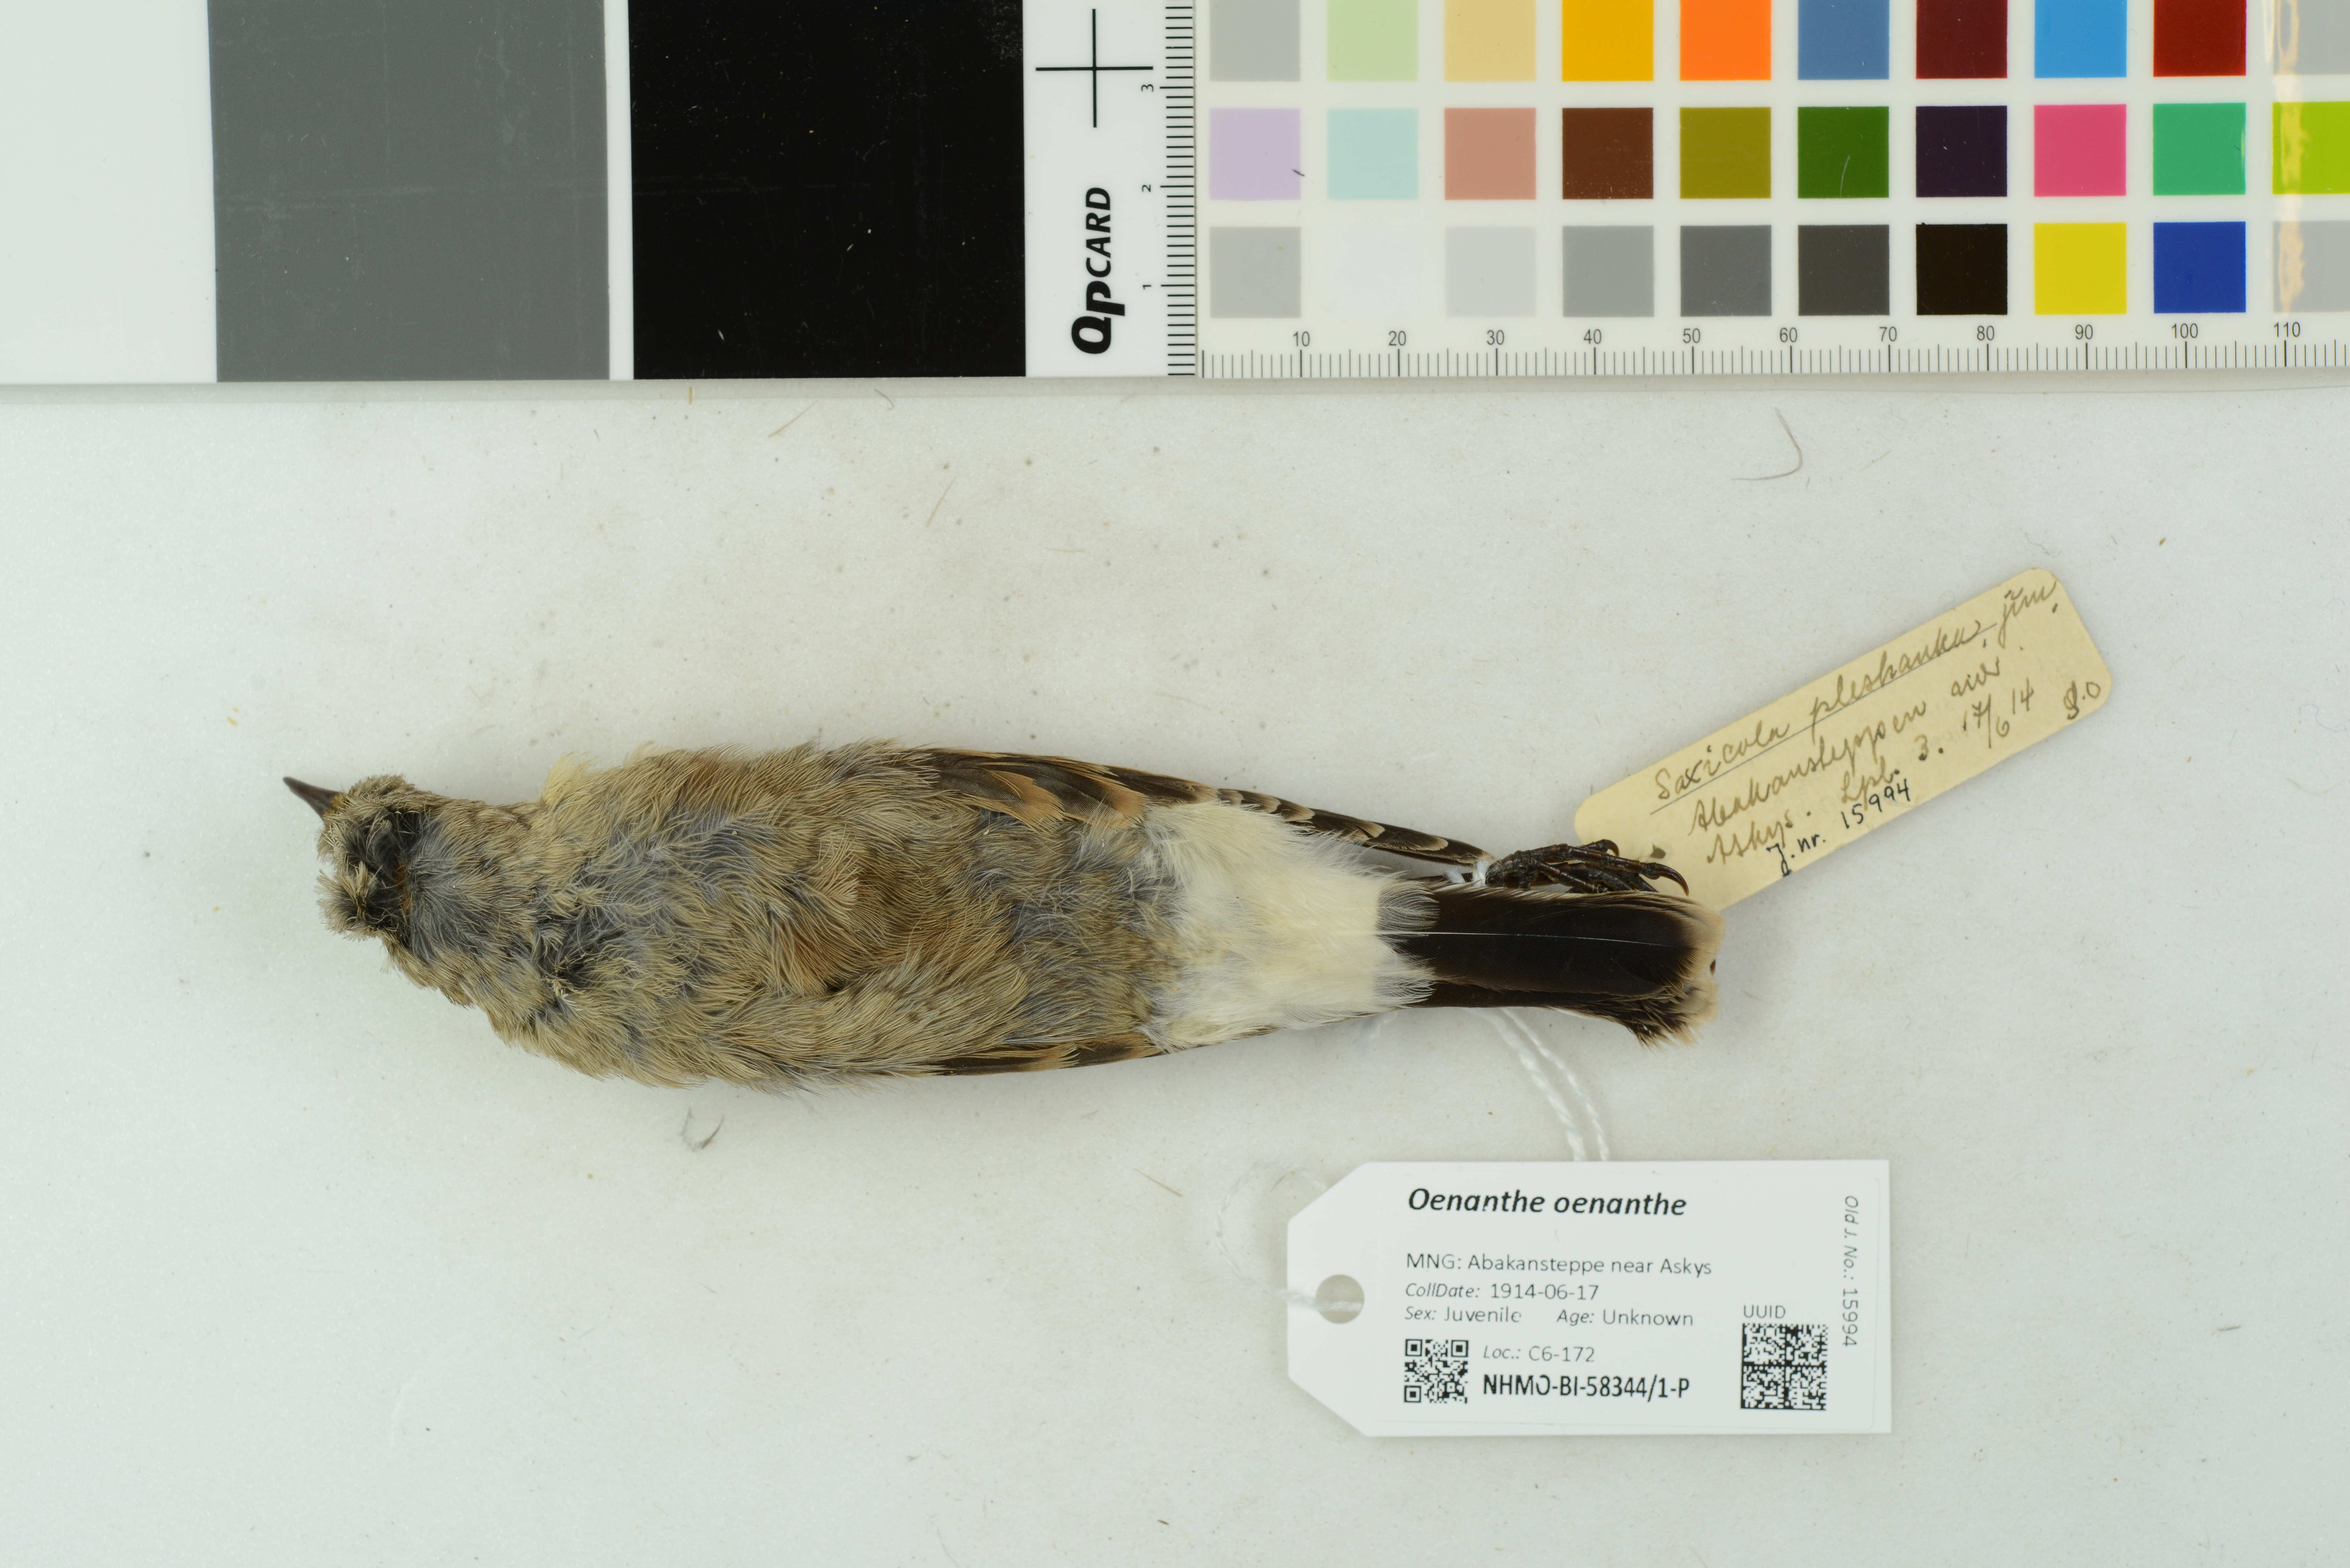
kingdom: Animalia
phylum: Chordata
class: Aves
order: Passeriformes
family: Muscicapidae
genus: Oenanthe
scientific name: Oenanthe oenanthe
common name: Northern wheatear
